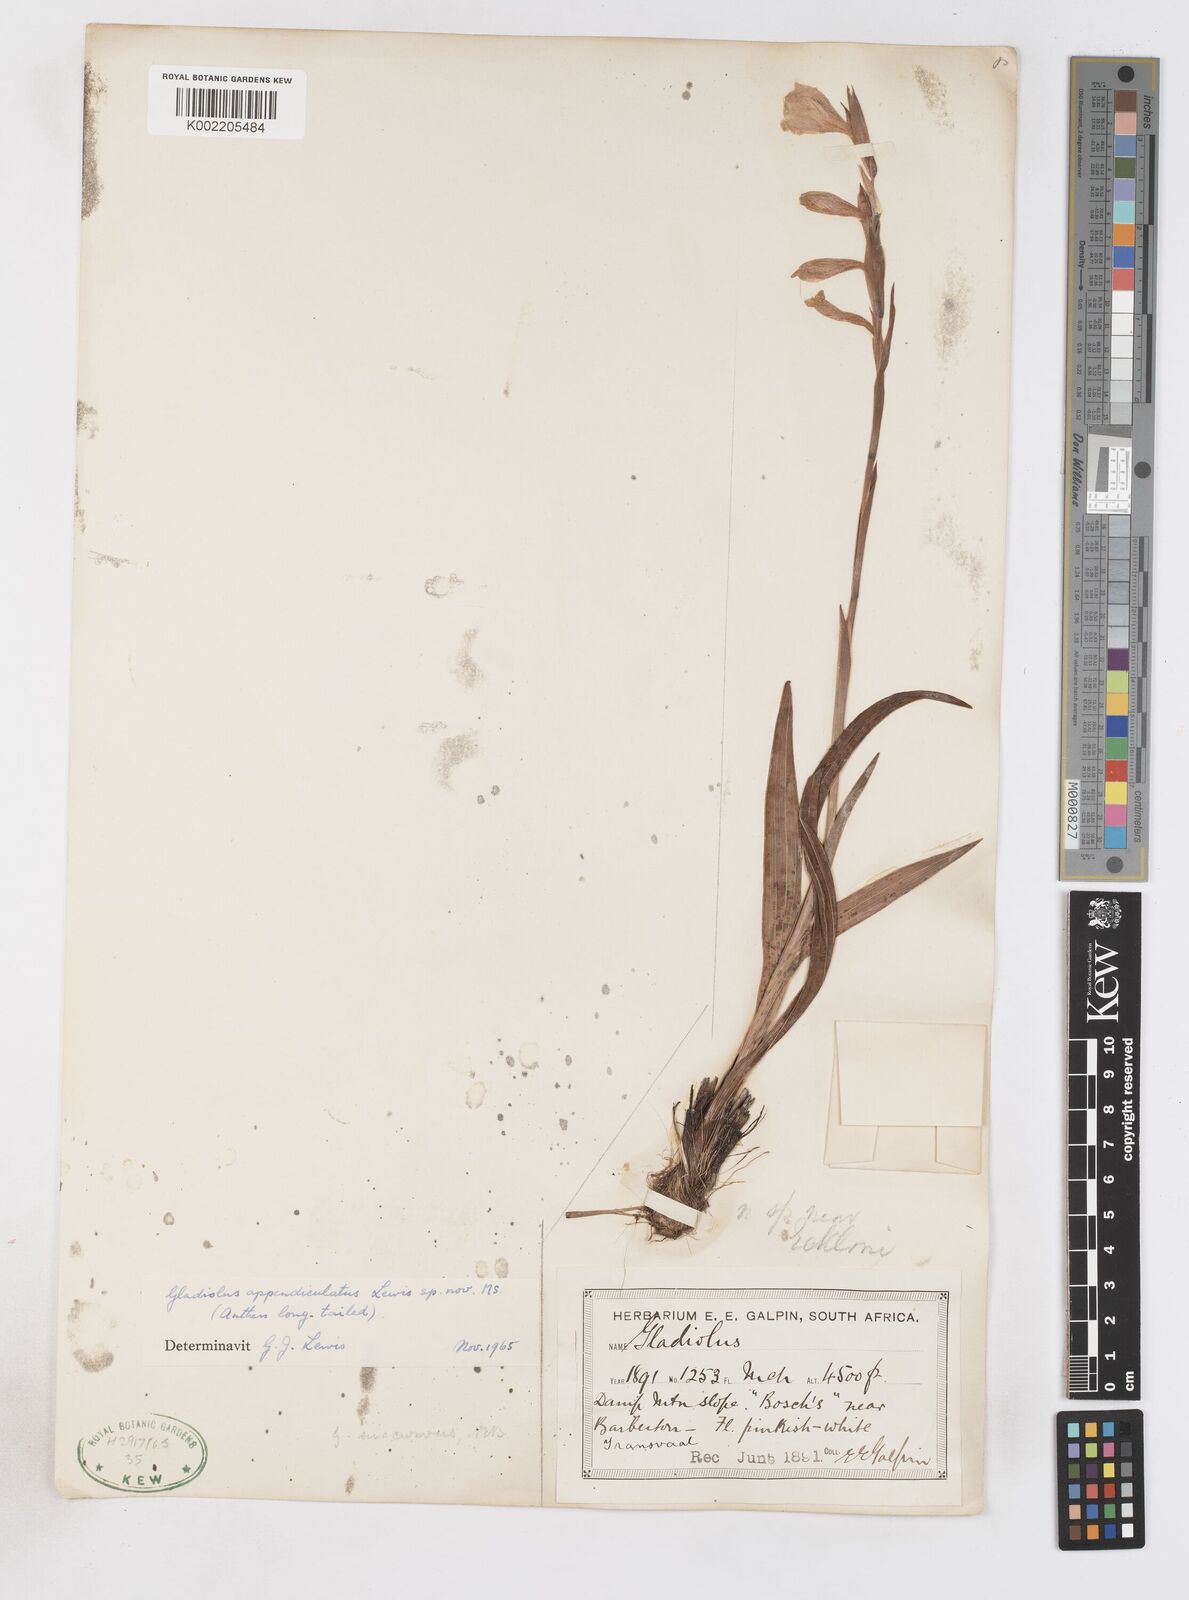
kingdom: Plantae
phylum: Tracheophyta
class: Liliopsida
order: Asparagales
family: Iridaceae
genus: Gladiolus
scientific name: Gladiolus appendiculatus
